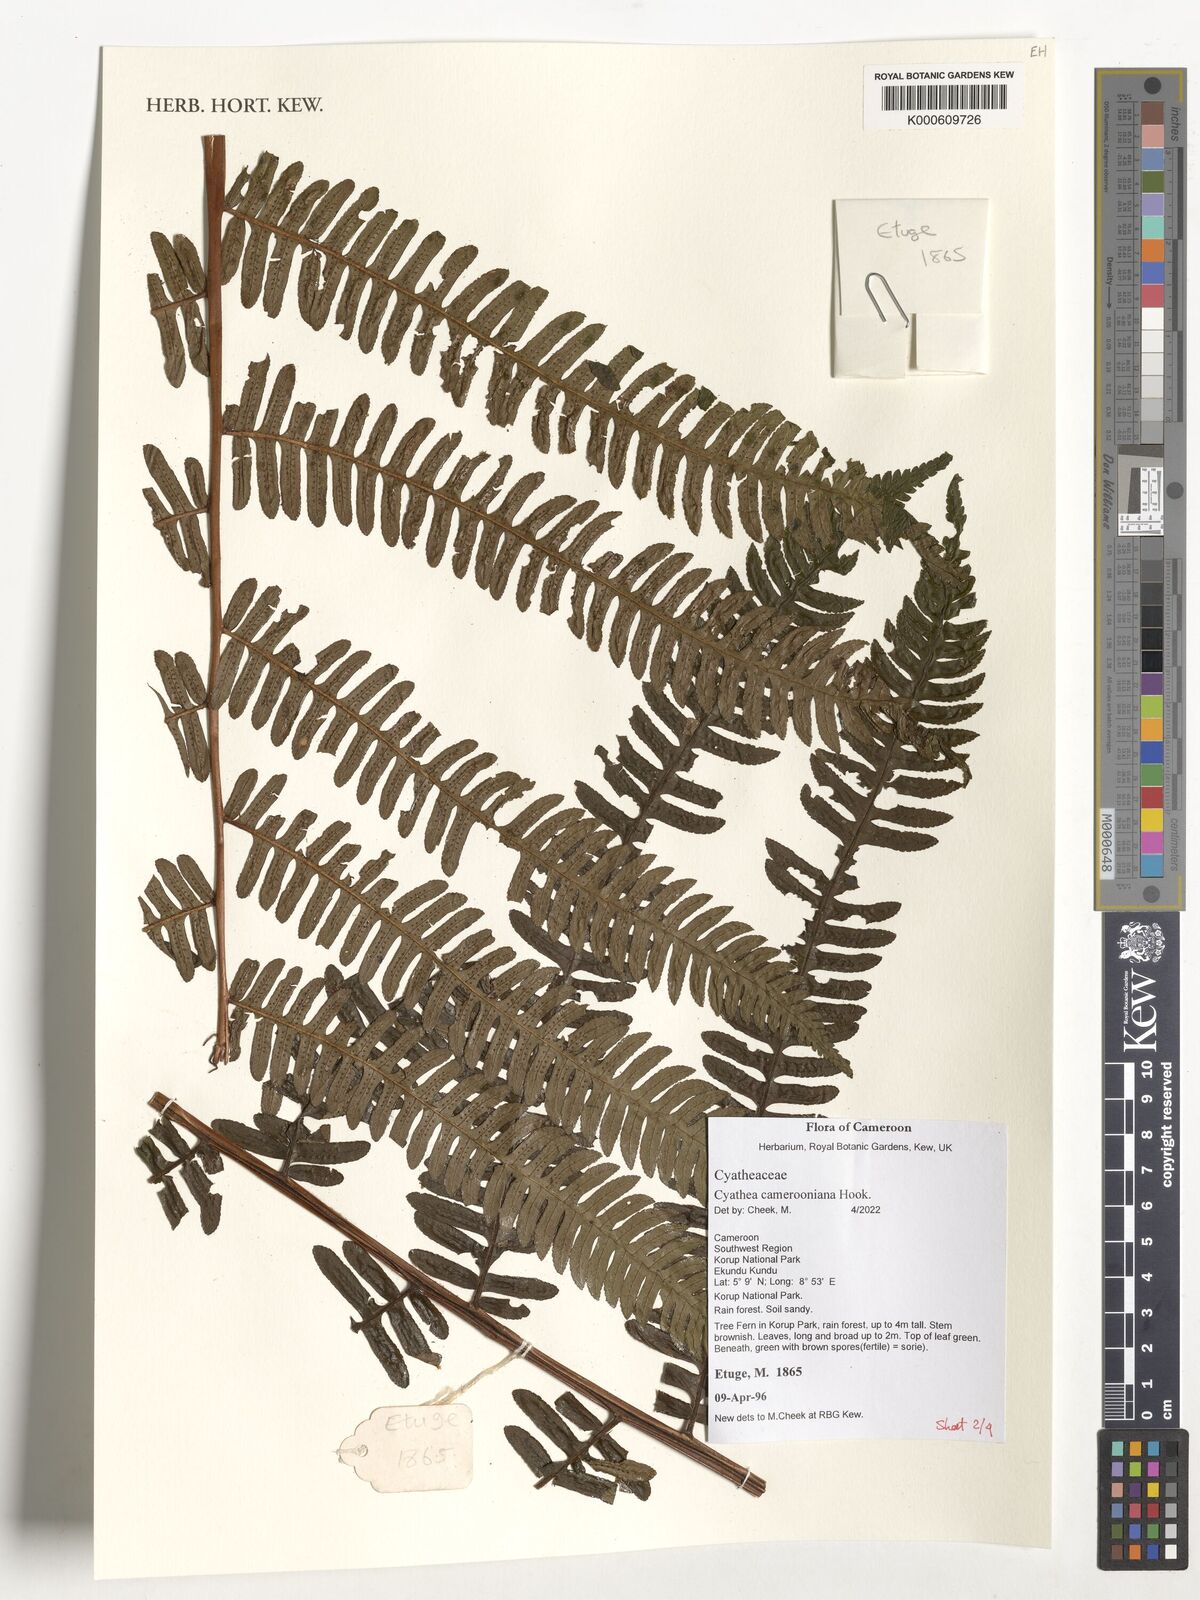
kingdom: Plantae
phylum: Tracheophyta
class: Polypodiopsida
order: Cyatheales
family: Cyatheaceae
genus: Alsophila
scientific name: Alsophila camerooniana
